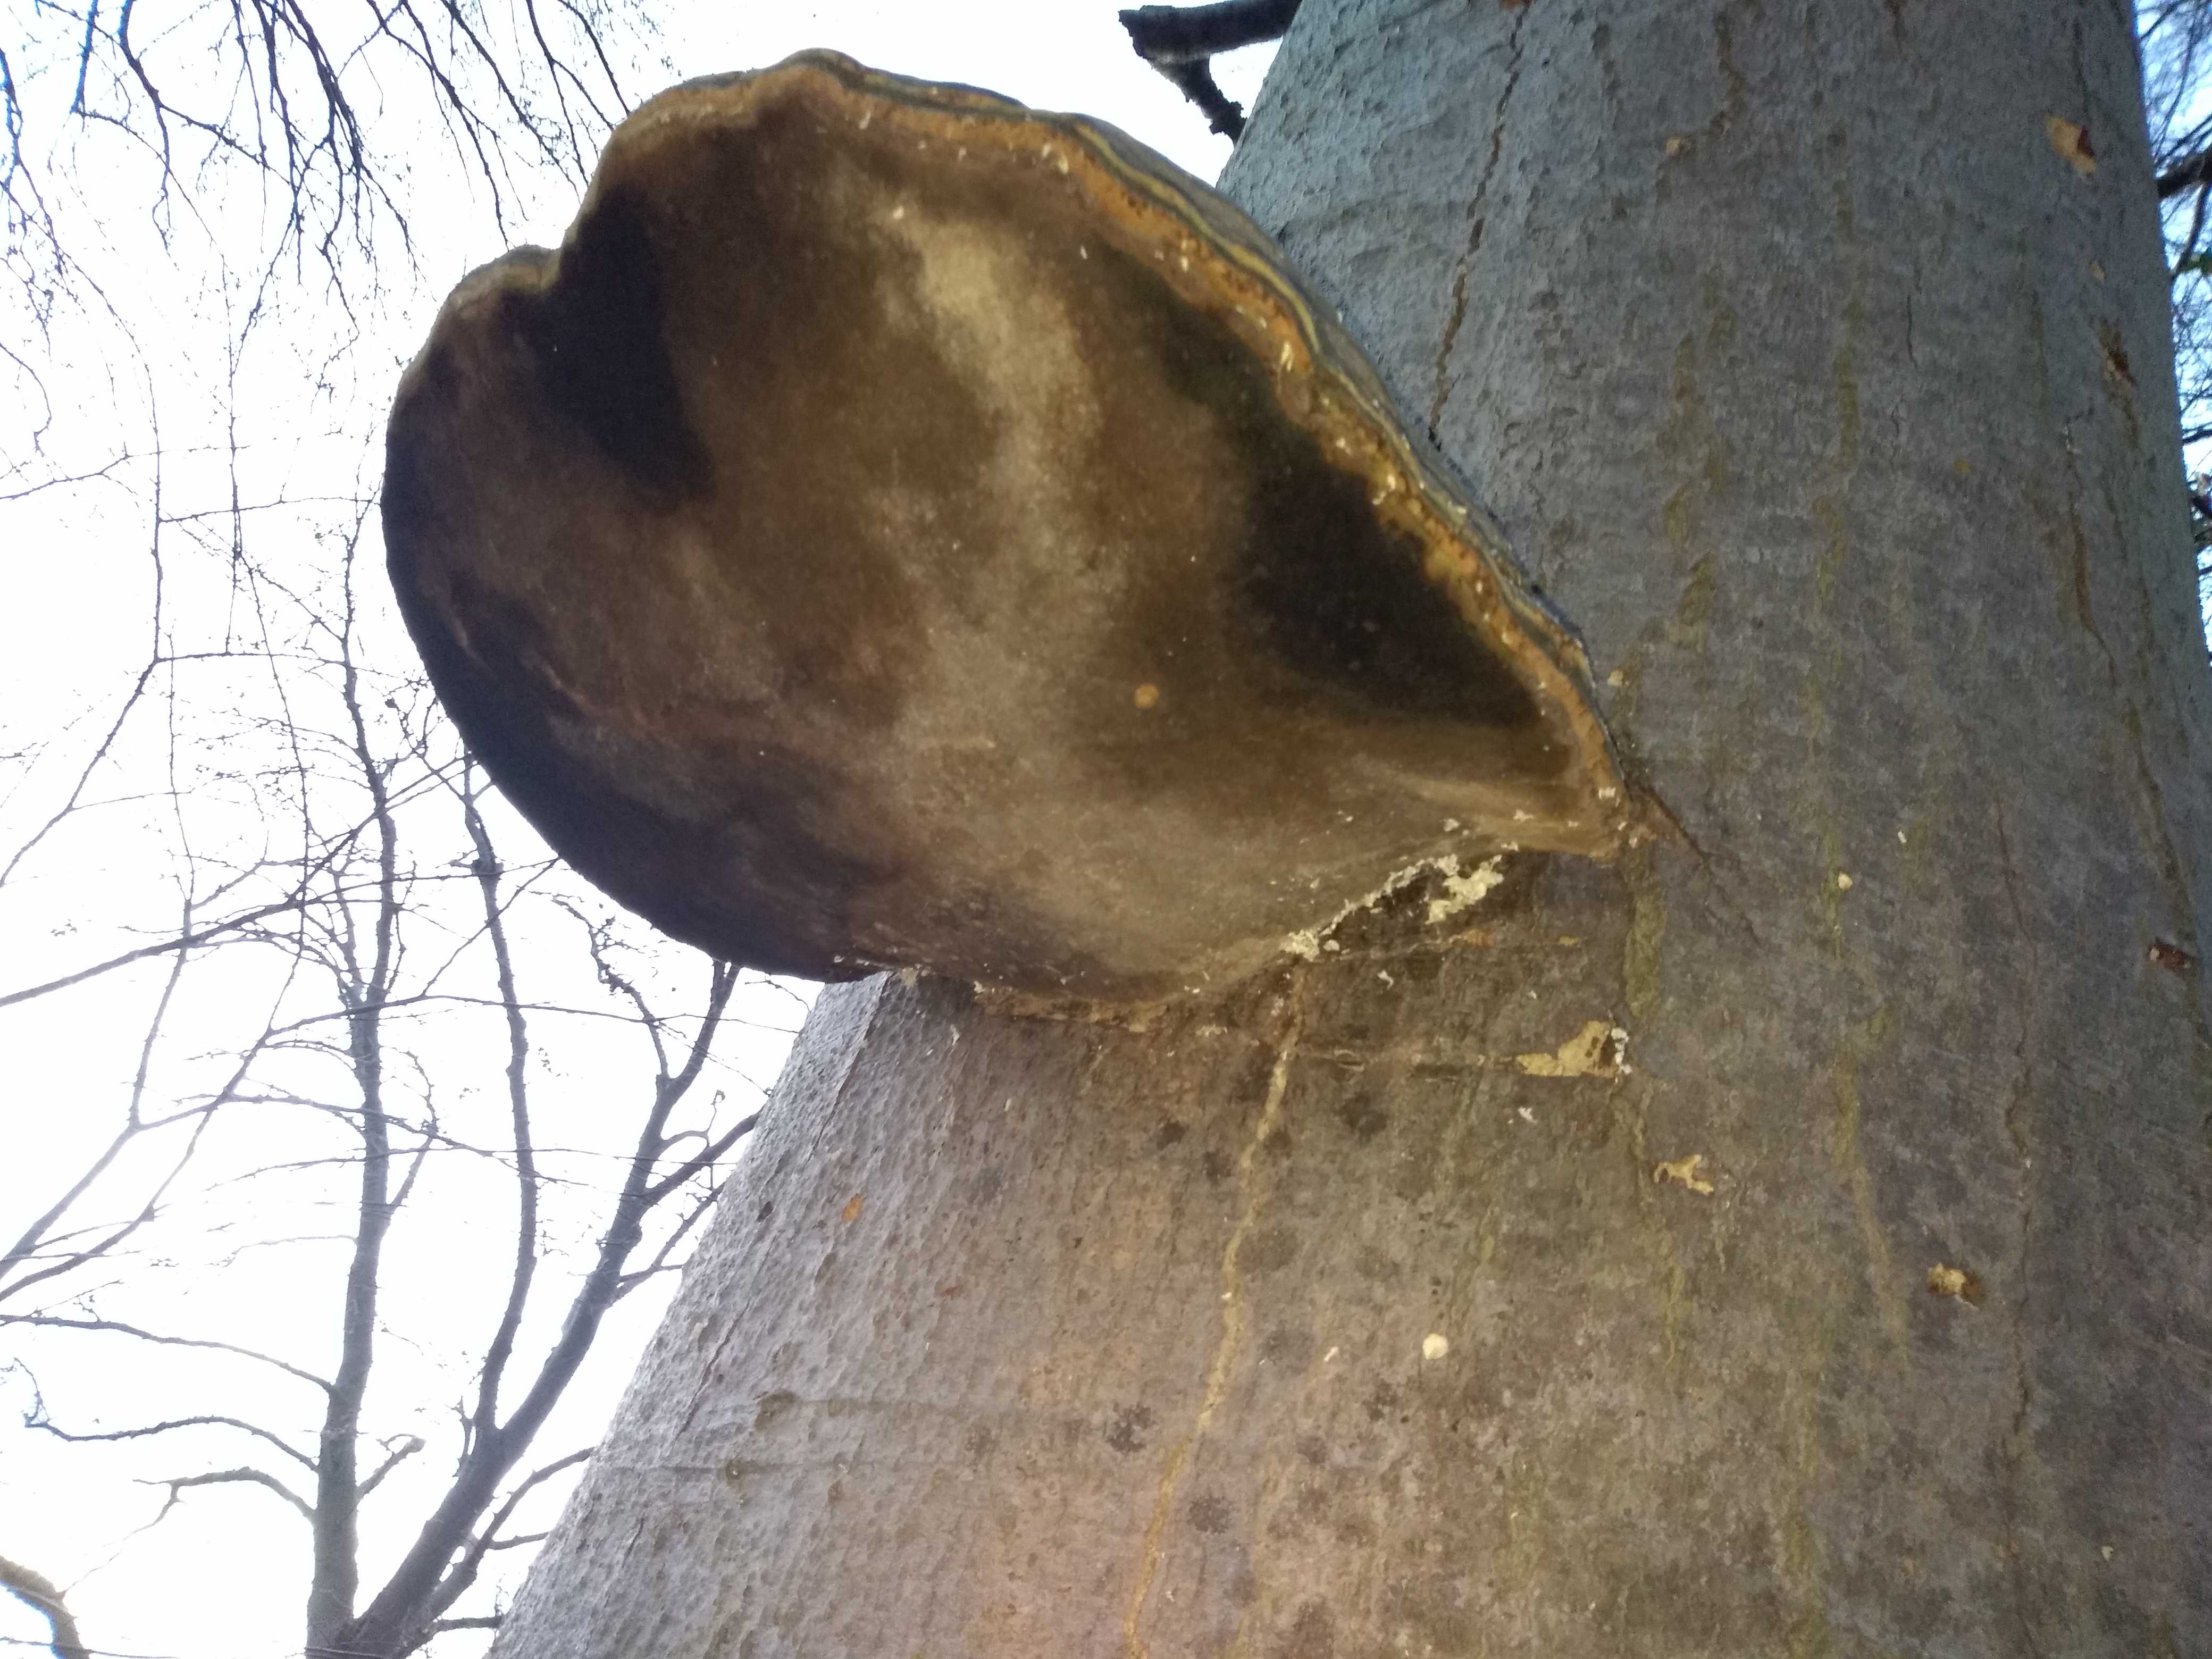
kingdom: Fungi
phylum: Basidiomycota
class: Agaricomycetes
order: Polyporales
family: Polyporaceae
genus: Fomes
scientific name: Fomes fomentarius
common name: tøndersvamp
